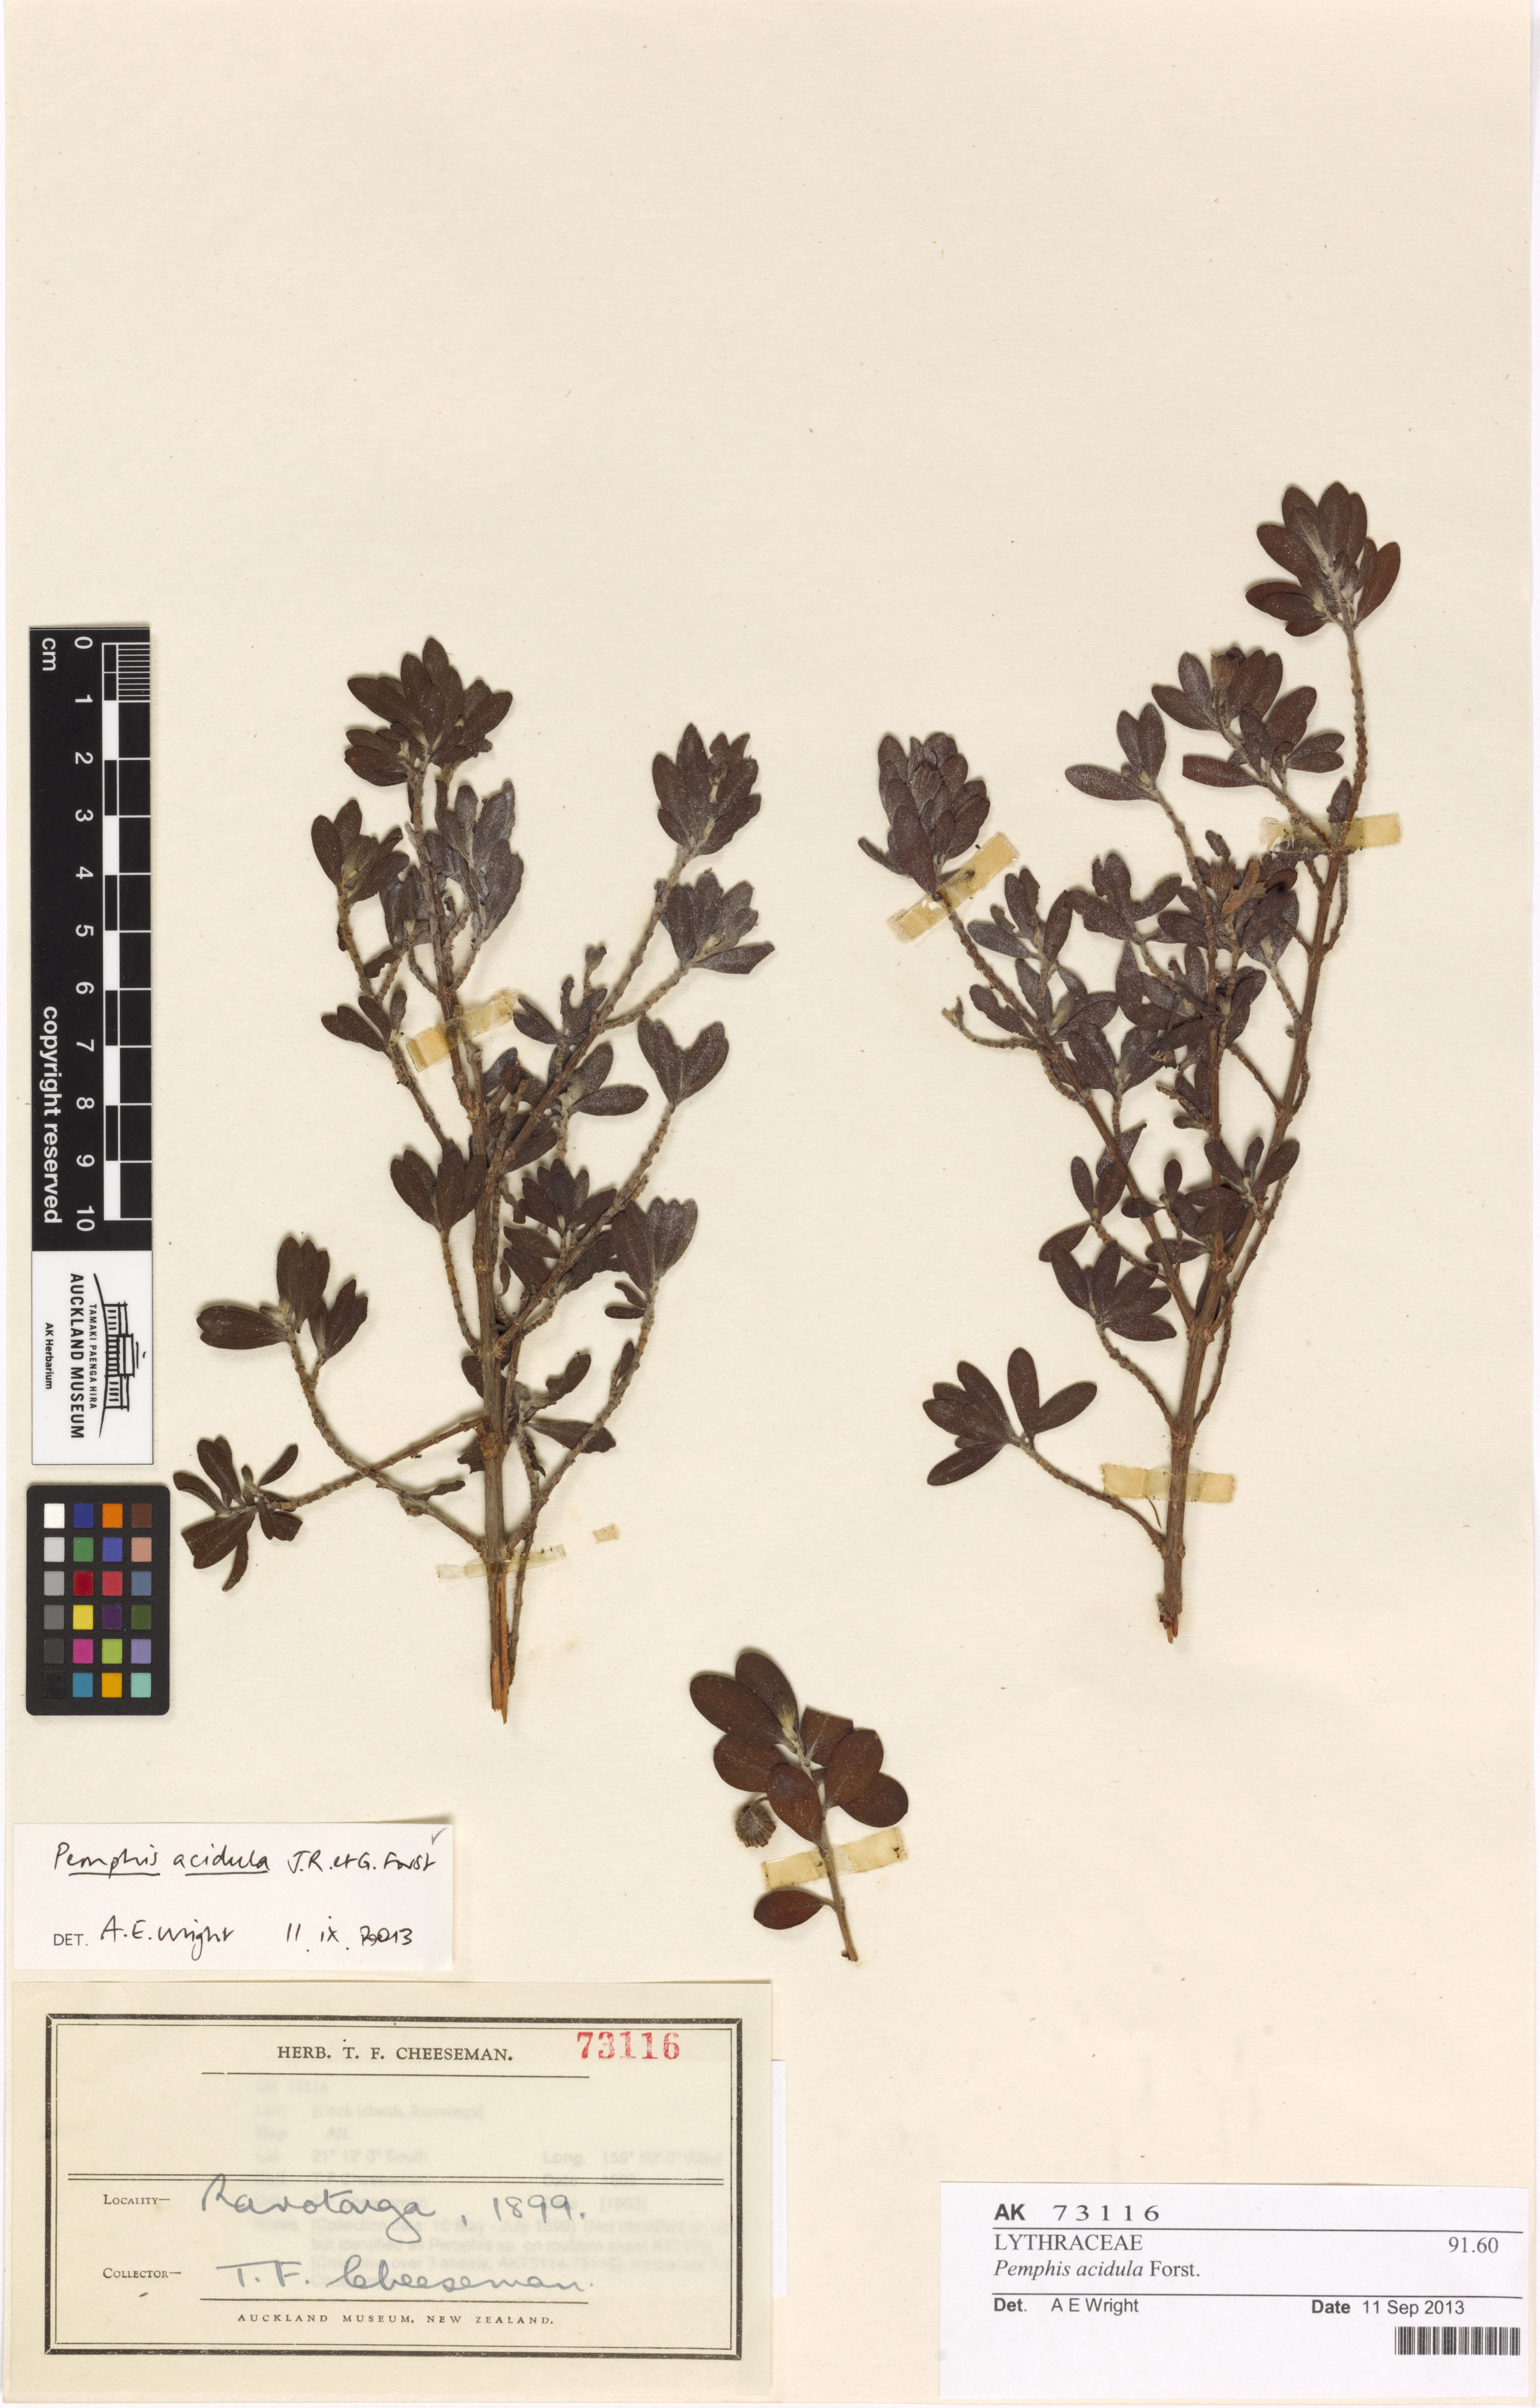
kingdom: Plantae
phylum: Tracheophyta
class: Magnoliopsida
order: Myrtales
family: Lythraceae
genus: Pemphis
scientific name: Pemphis acidula
